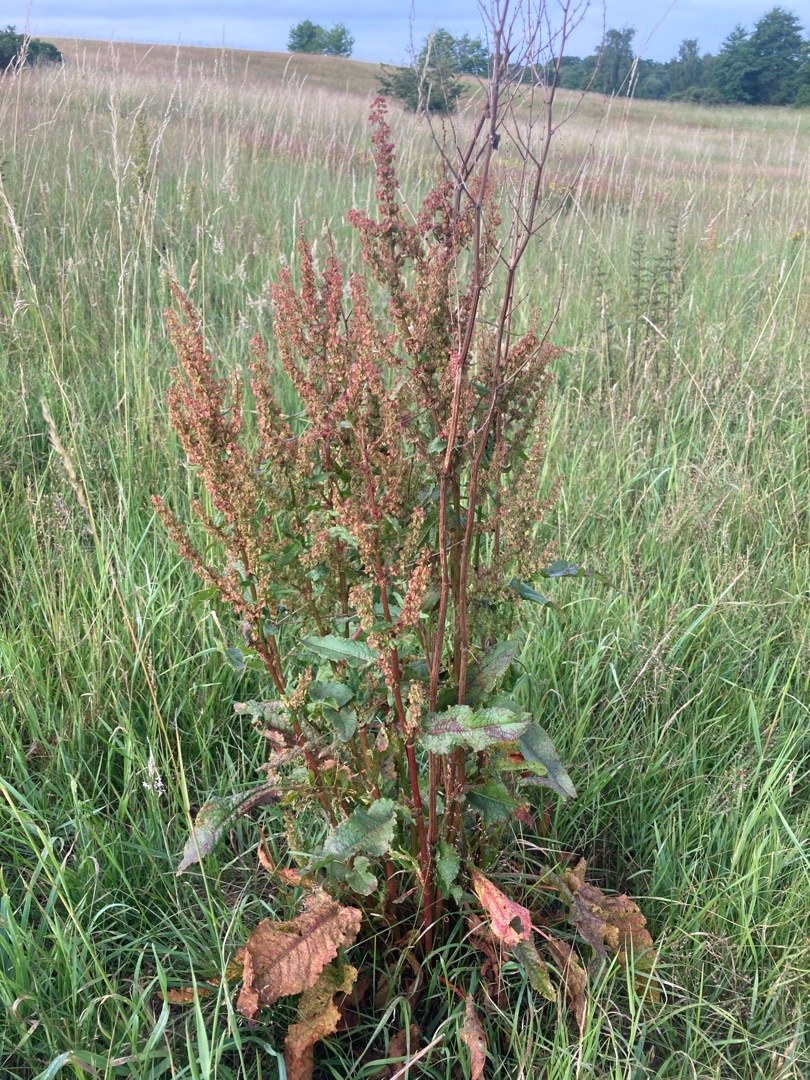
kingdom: Plantae
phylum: Tracheophyta
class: Magnoliopsida
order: Caryophyllales
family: Polygonaceae
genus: Rumex
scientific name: Rumex obtusifolius
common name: Butbladet skræppe
